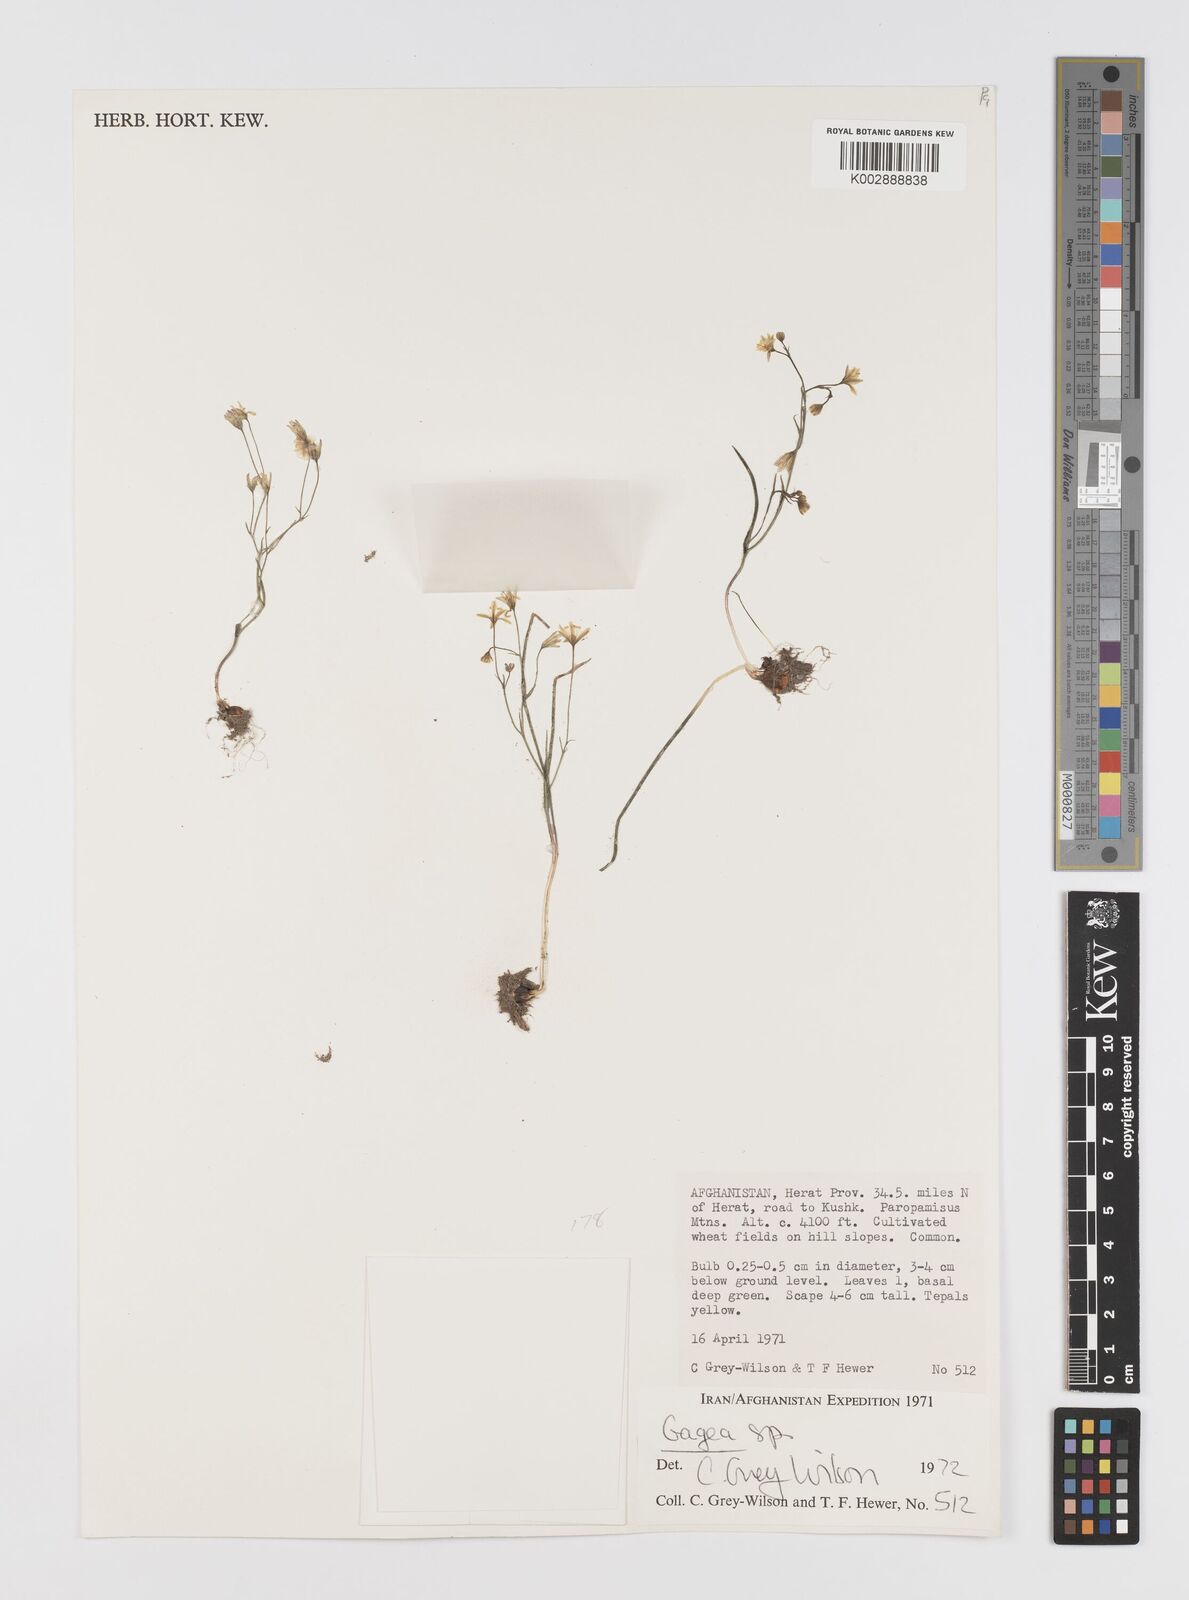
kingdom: Plantae
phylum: Tracheophyta
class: Liliopsida
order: Liliales
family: Liliaceae
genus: Gagea
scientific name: Gagea
